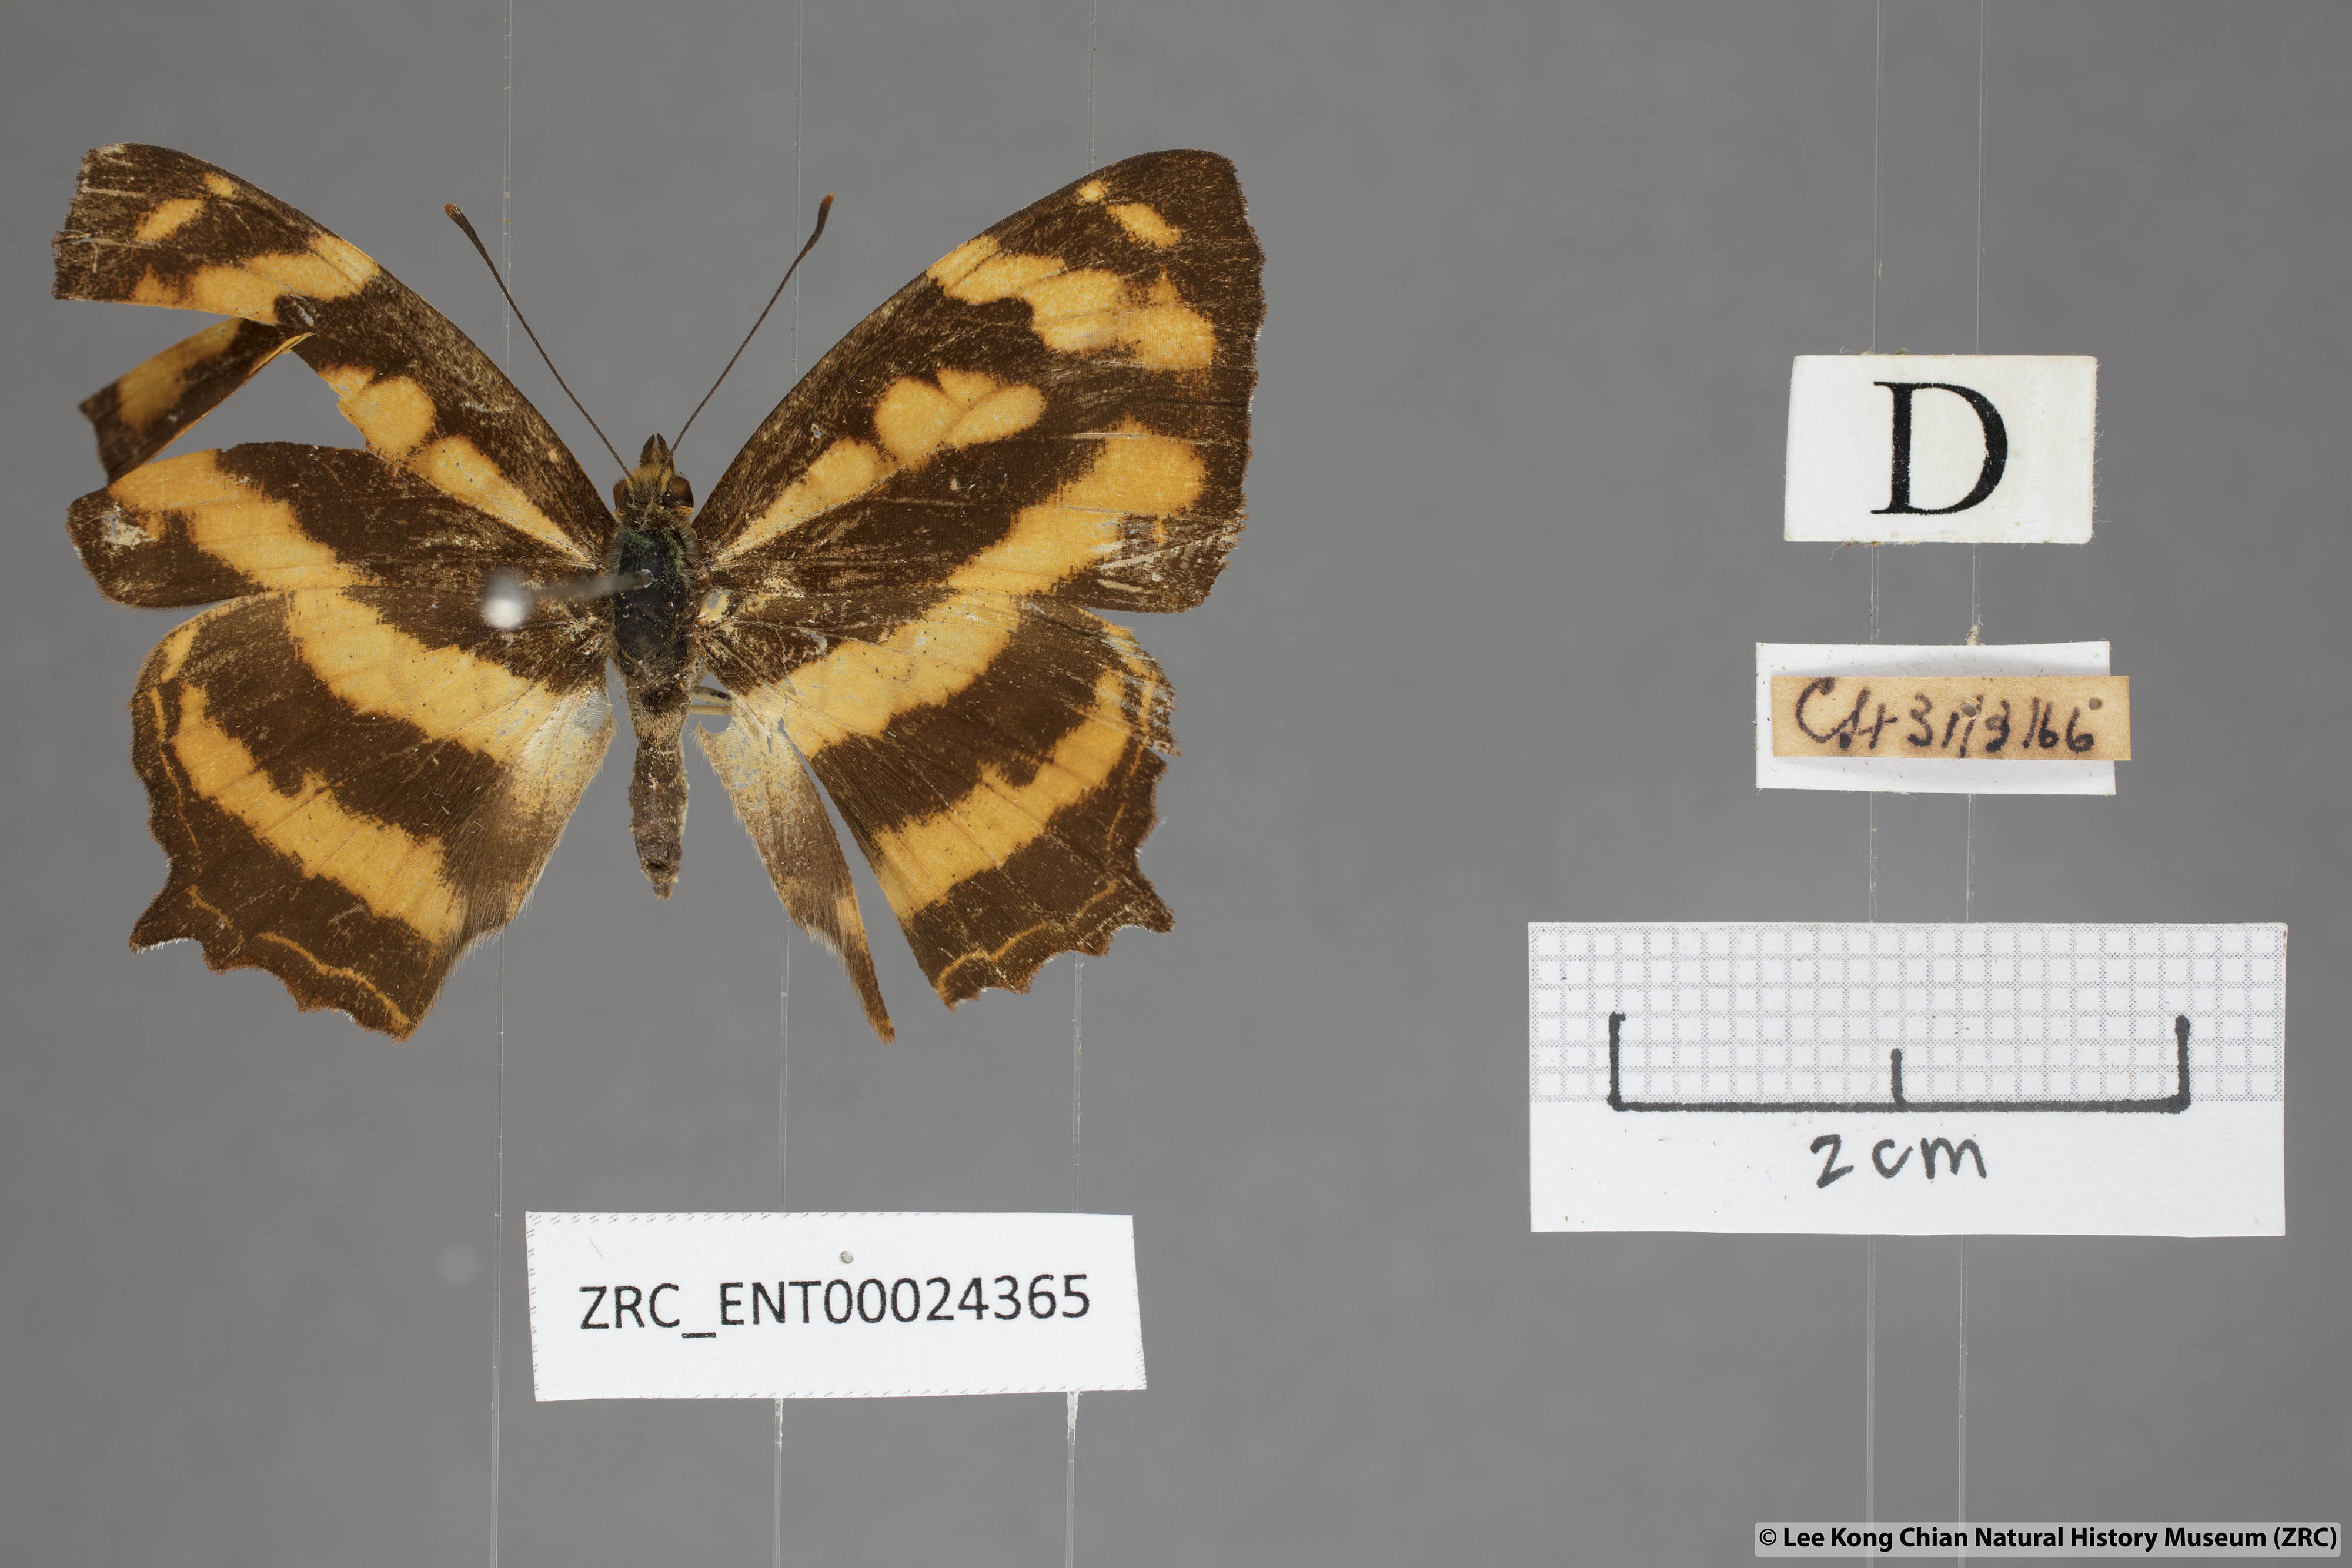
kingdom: Animalia
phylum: Arthropoda
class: Insecta
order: Lepidoptera
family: Nymphalidae
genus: Symbrenthia
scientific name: Symbrenthia hypselis
